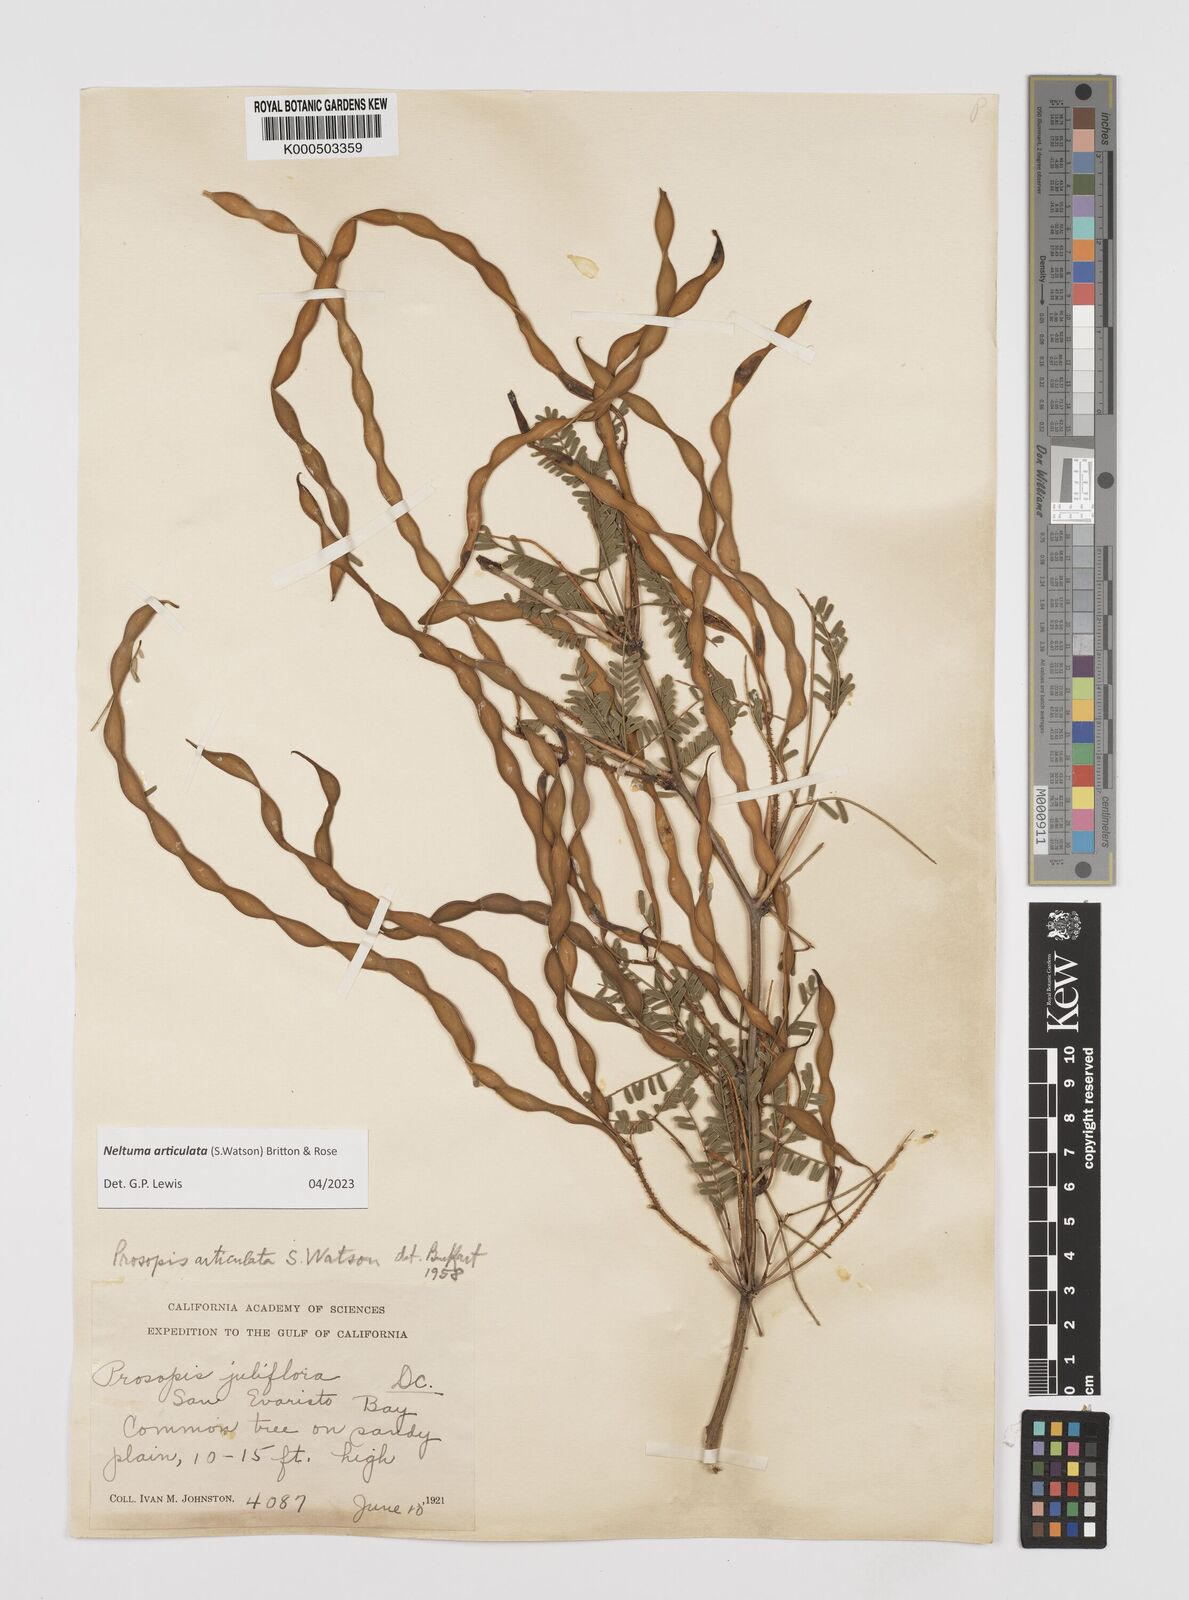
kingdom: Plantae
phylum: Tracheophyta
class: Magnoliopsida
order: Fabales
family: Fabaceae
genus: Prosopis
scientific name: Prosopis articulata
